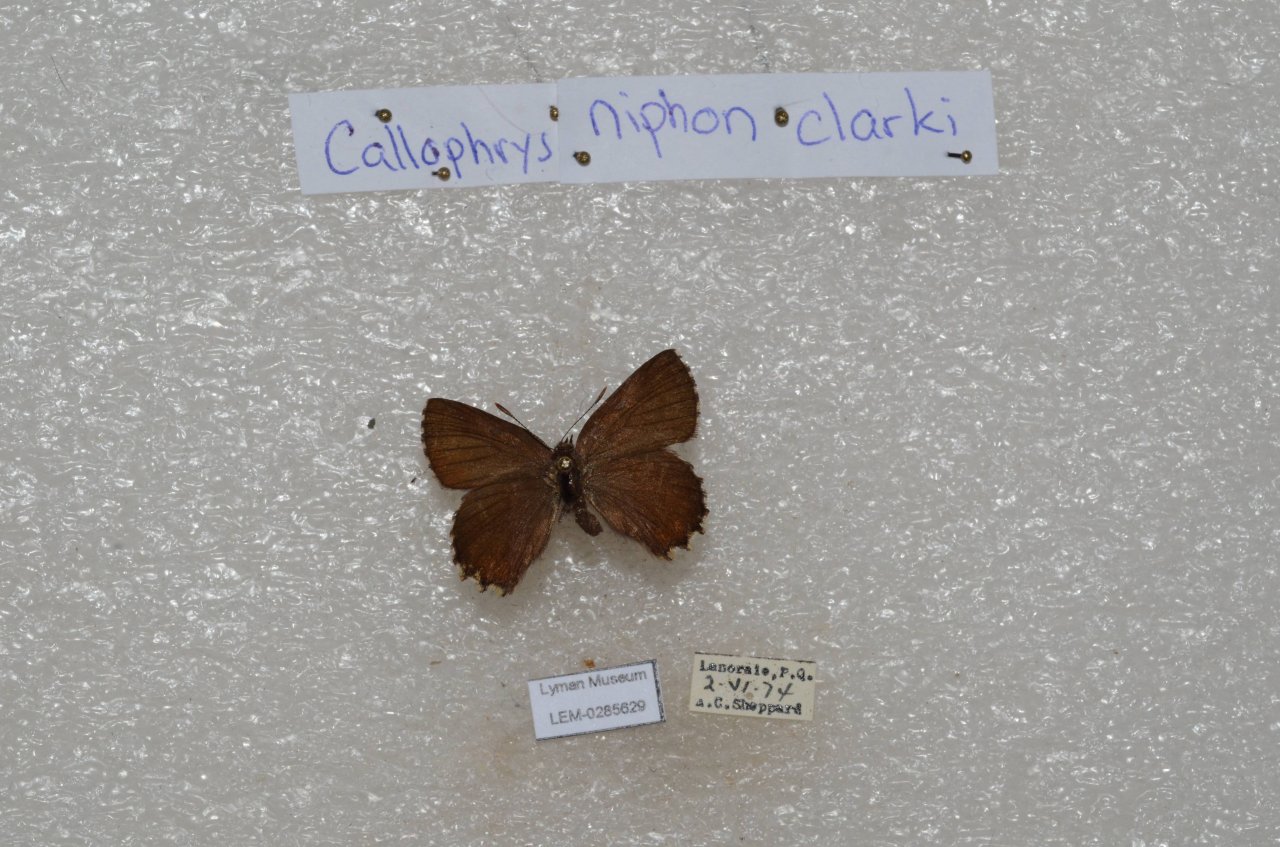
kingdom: Animalia
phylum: Arthropoda
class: Insecta
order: Lepidoptera
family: Lycaenidae
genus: Incisalia
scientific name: Incisalia niphon
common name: Eastern Pine Elfin
